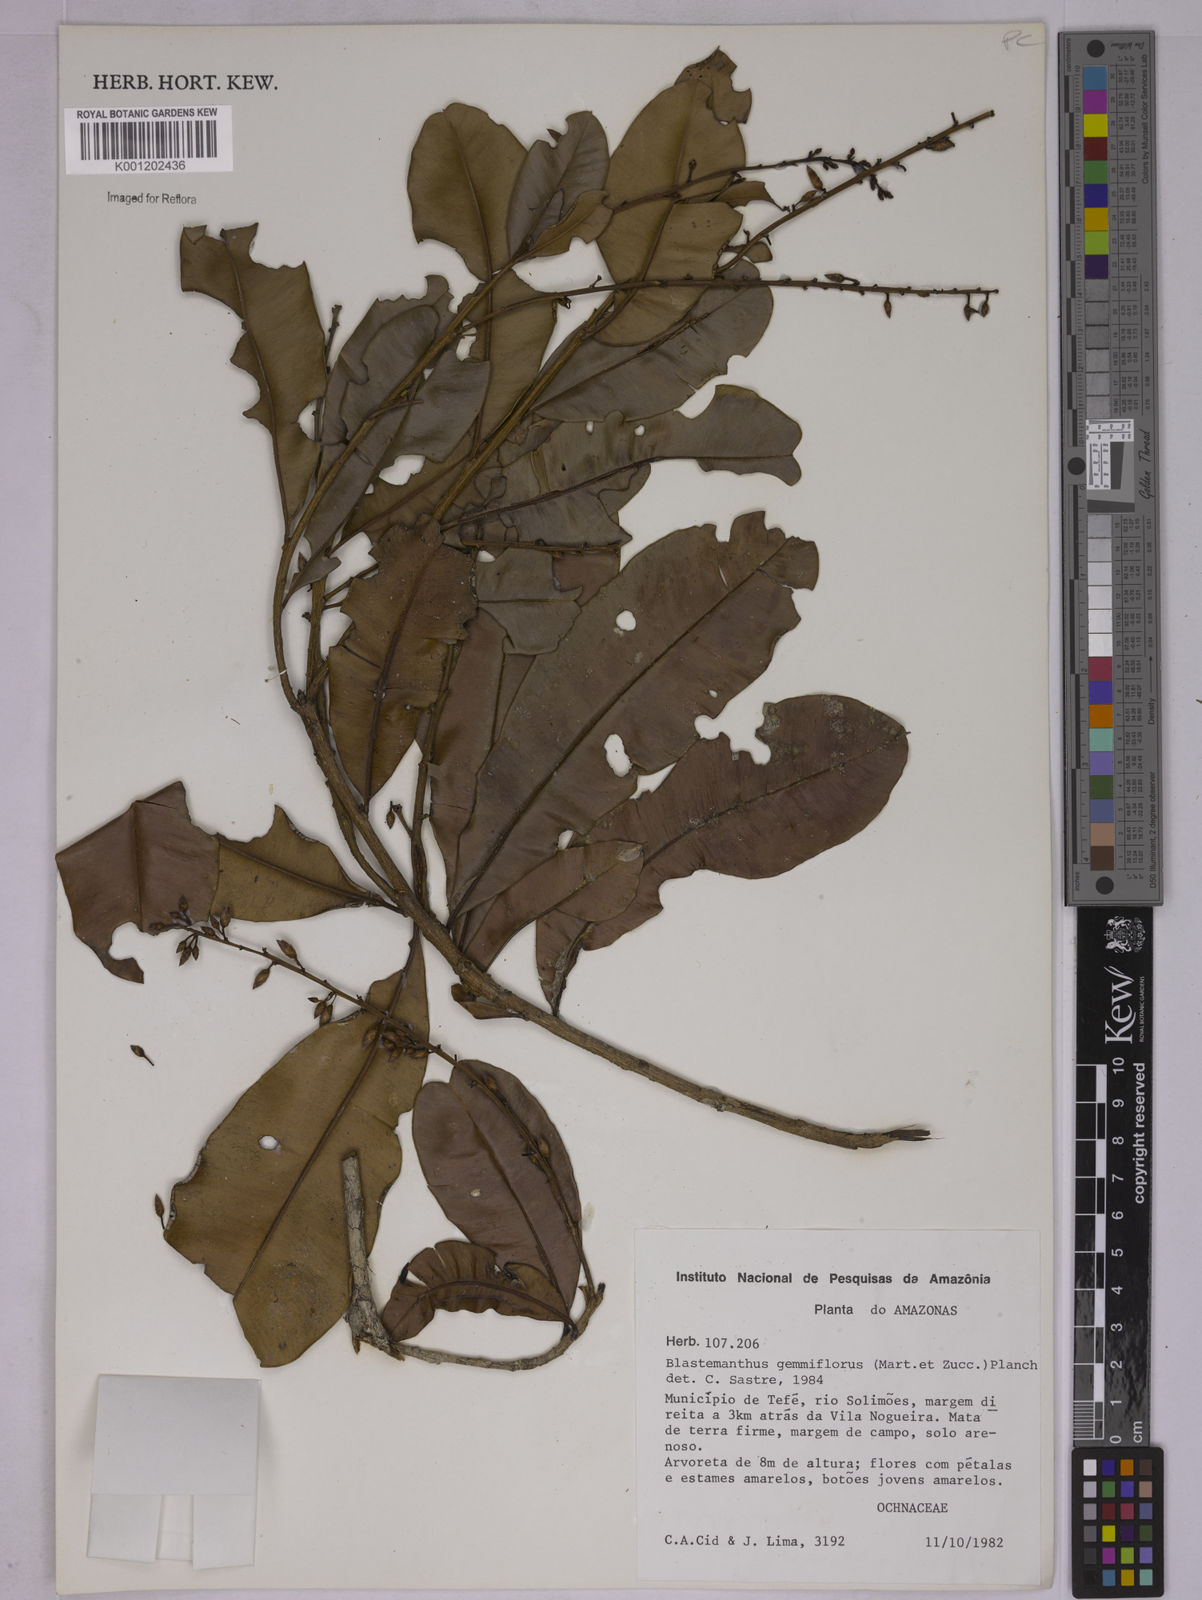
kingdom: Plantae
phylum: Tracheophyta
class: Magnoliopsida
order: Malpighiales
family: Ochnaceae
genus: Blastemanthus
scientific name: Blastemanthus gemmiflorus
